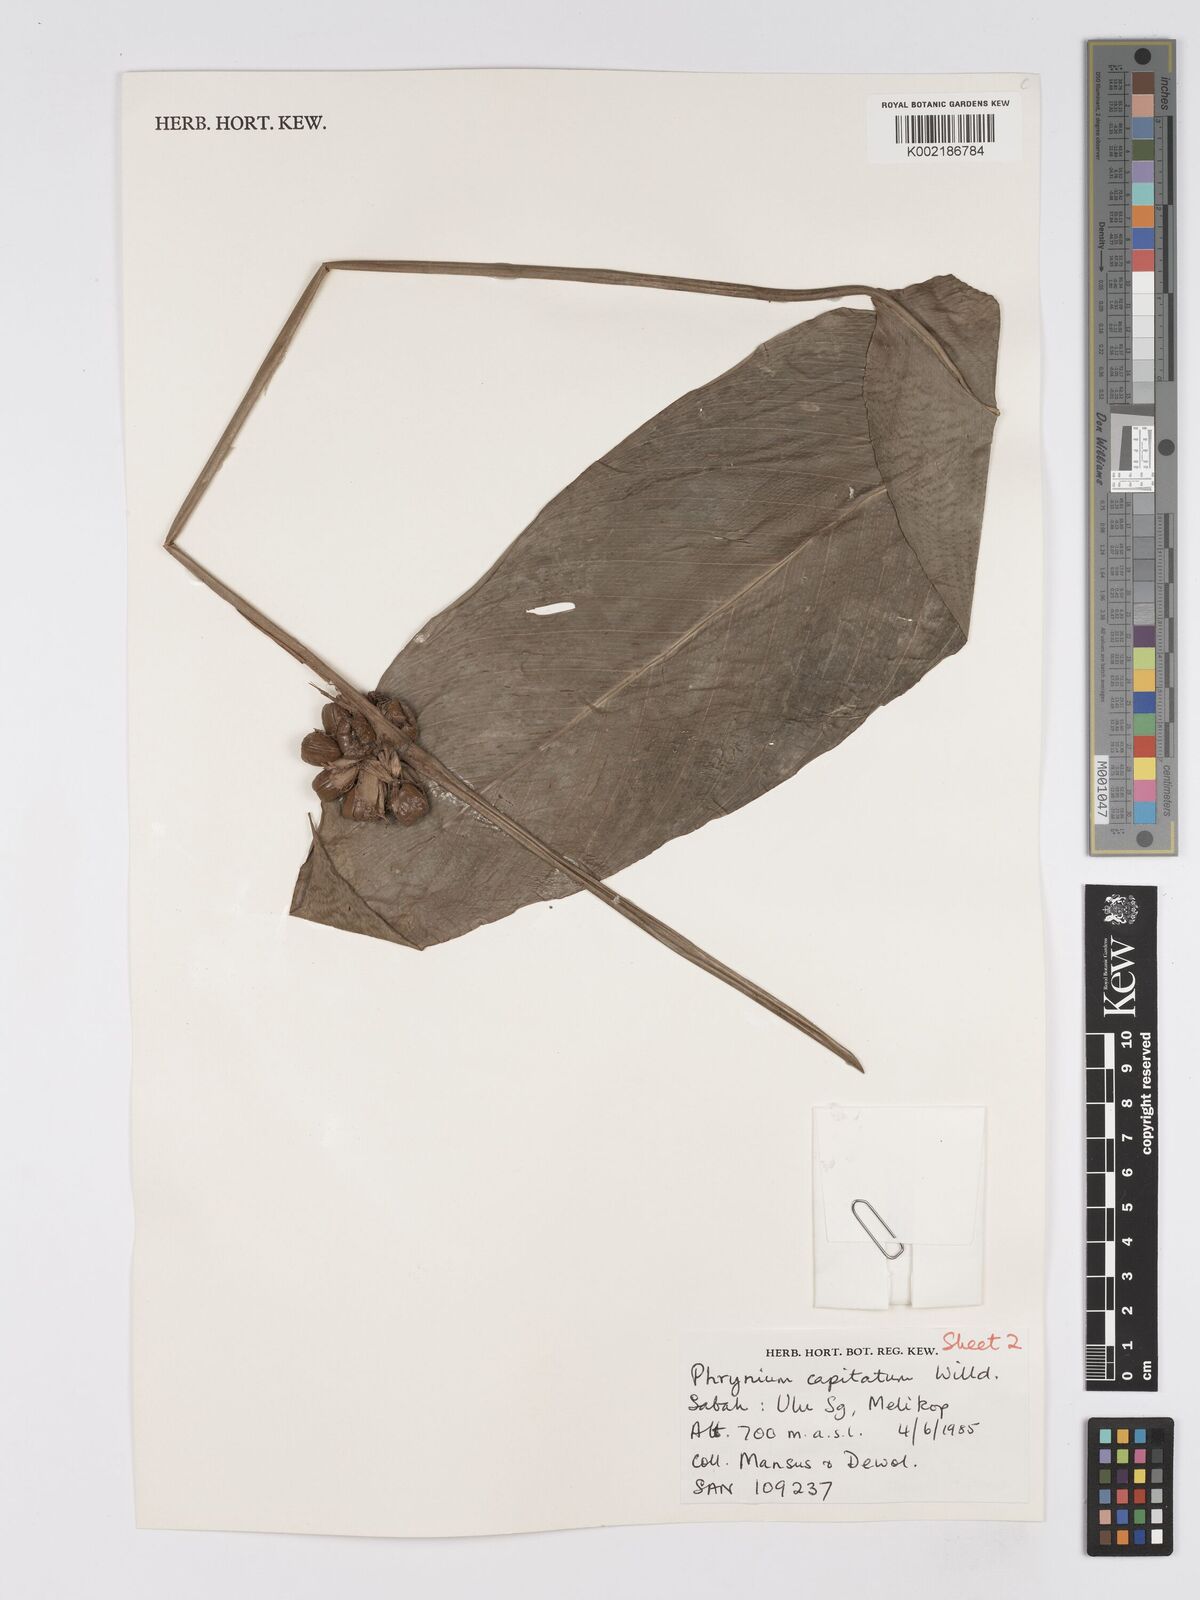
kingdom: Plantae
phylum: Tracheophyta
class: Liliopsida
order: Zingiberales
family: Marantaceae
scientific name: Marantaceae
